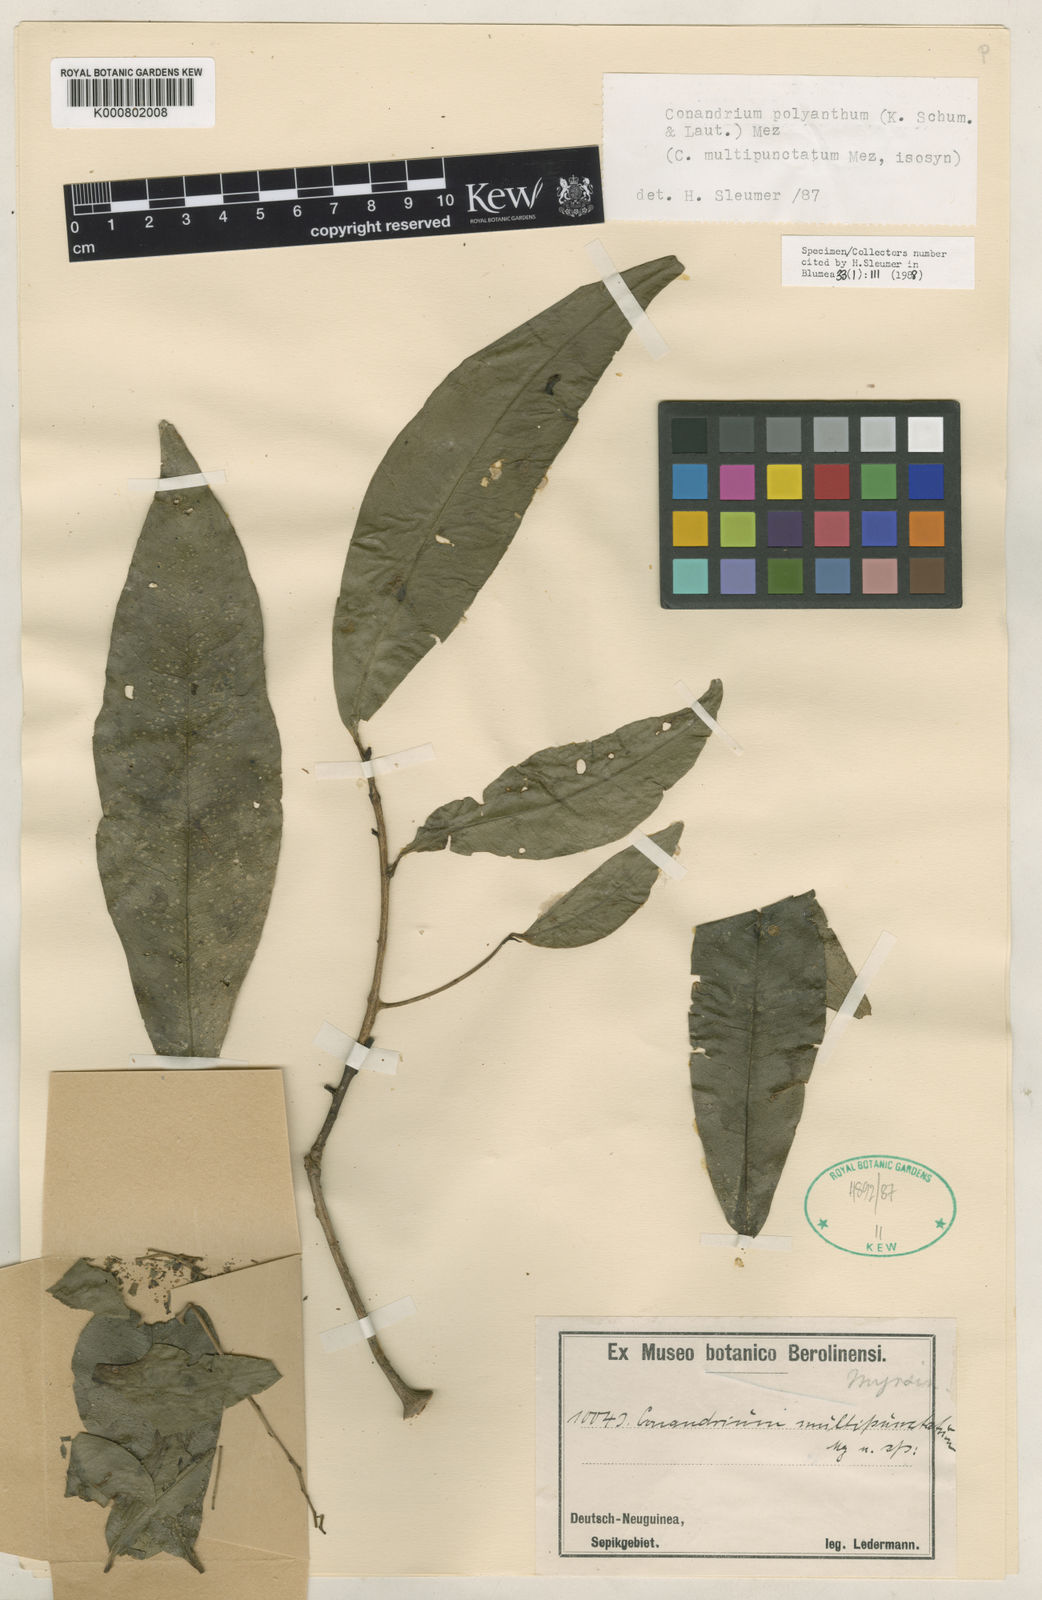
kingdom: Plantae
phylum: Tracheophyta
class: Magnoliopsida
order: Ericales
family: Primulaceae
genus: Conandrium
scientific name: Conandrium polyanthum
